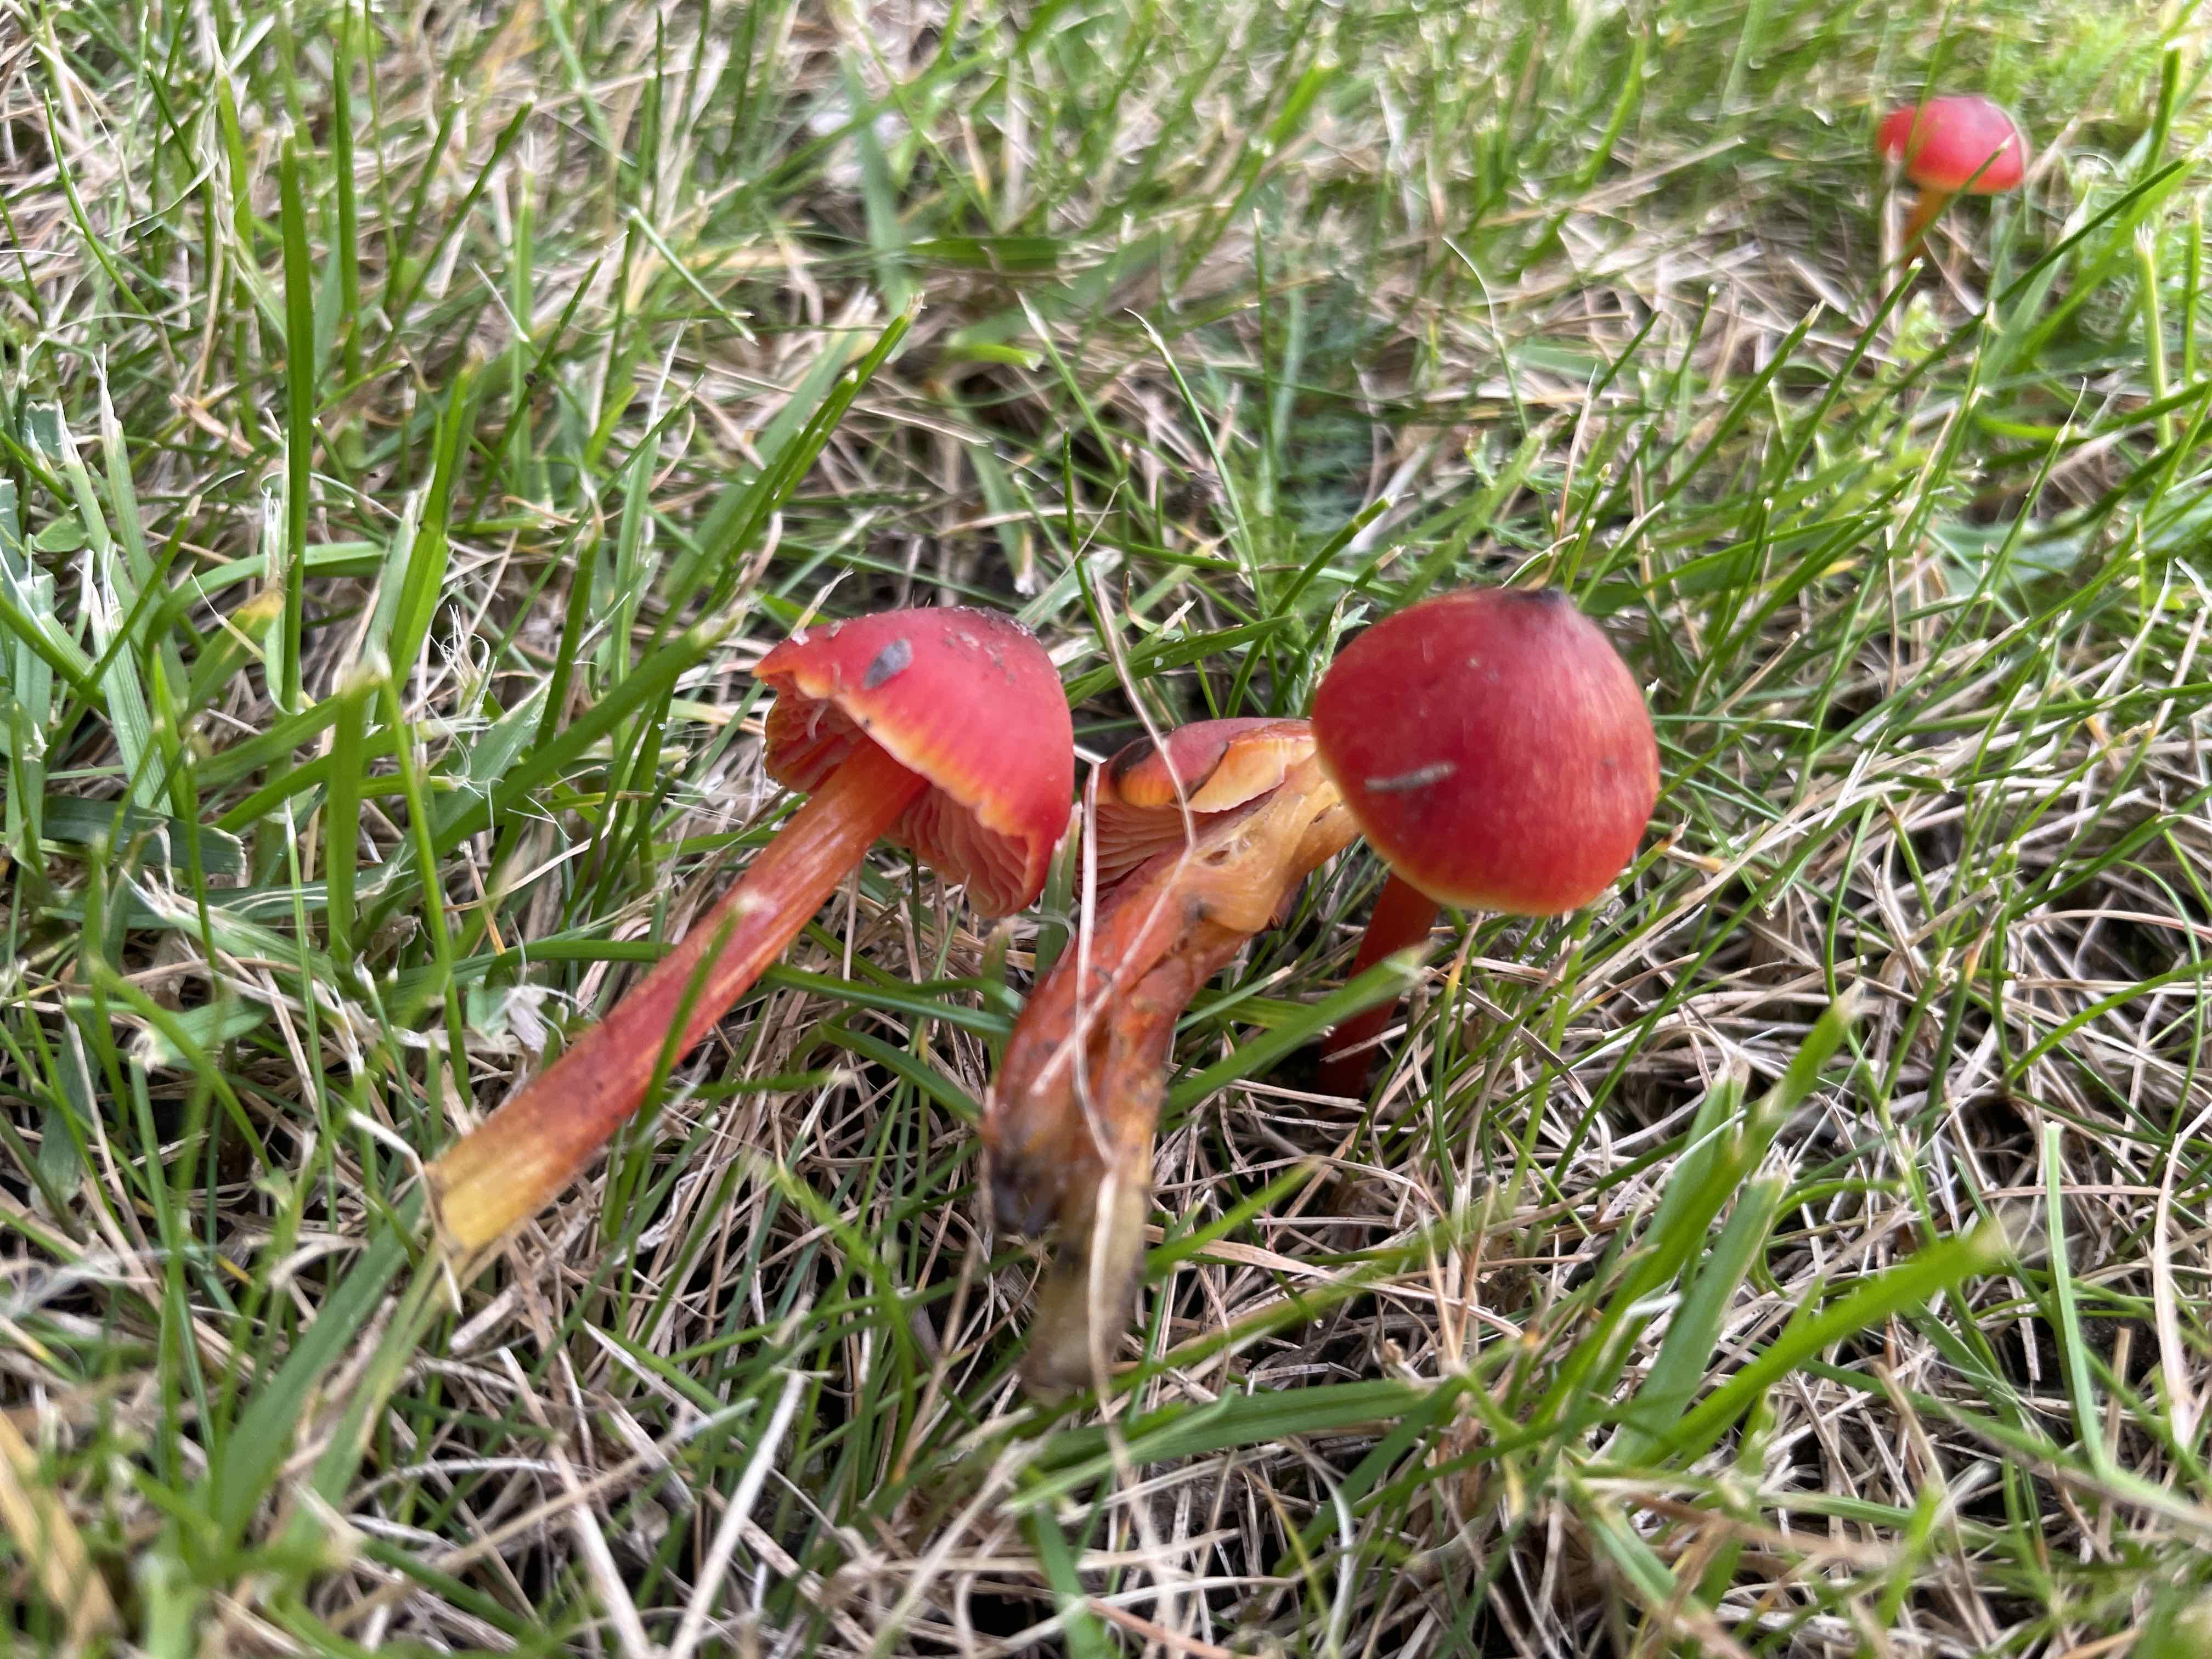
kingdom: Fungi
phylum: Basidiomycota
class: Agaricomycetes
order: Agaricales
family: Hygrophoraceae
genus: Hygrocybe
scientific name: Hygrocybe conica
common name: kegle-vokshat
